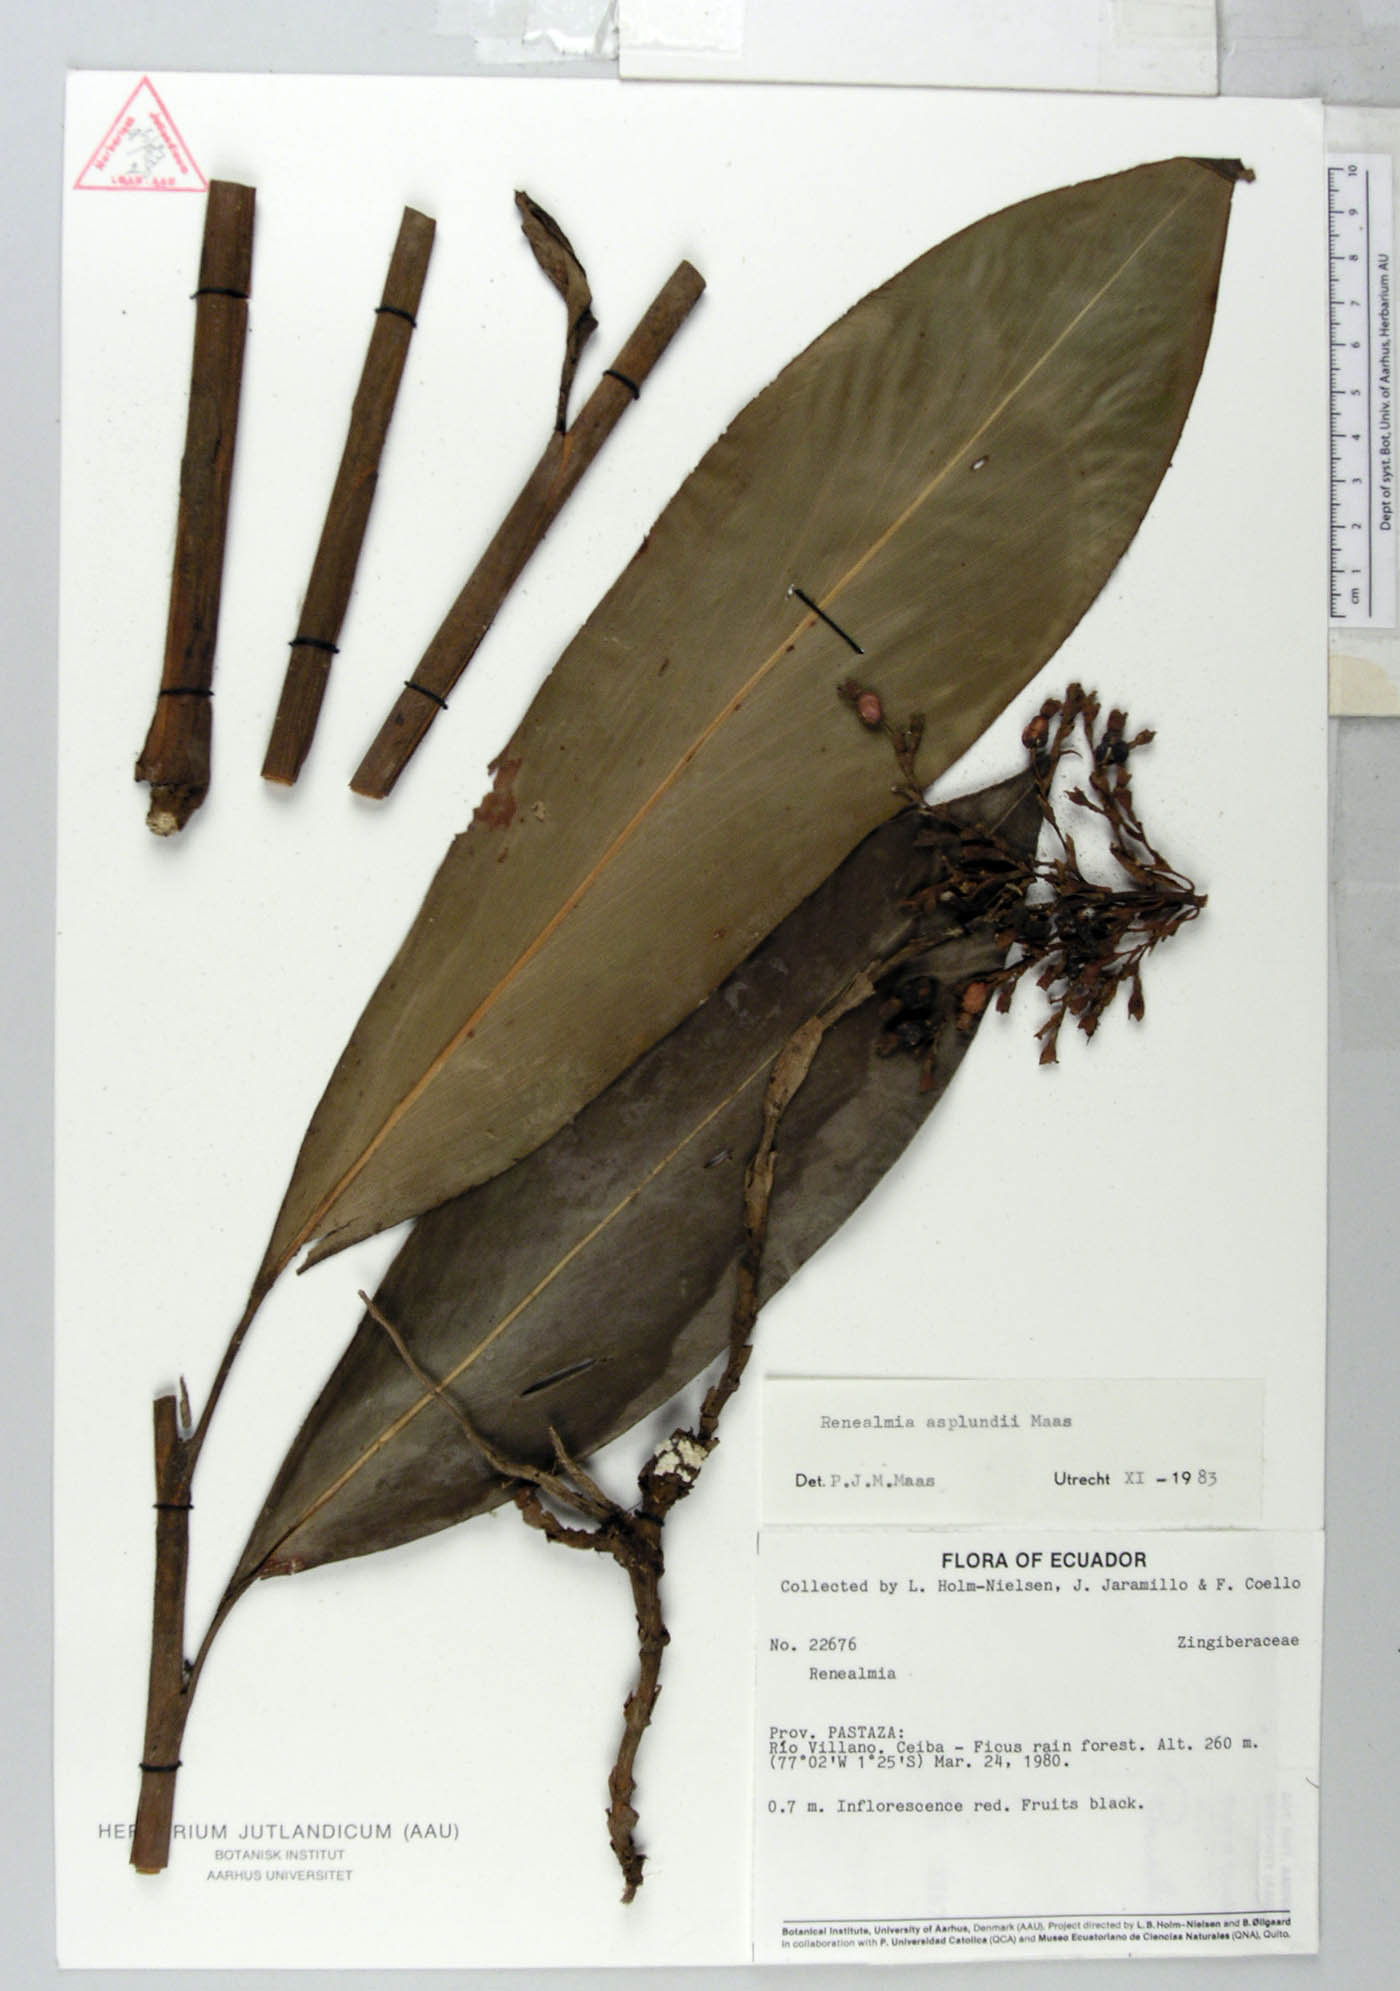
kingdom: Plantae
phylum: Tracheophyta
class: Liliopsida
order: Zingiberales
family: Zingiberaceae
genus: Renealmia
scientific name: Renealmia asplundii
